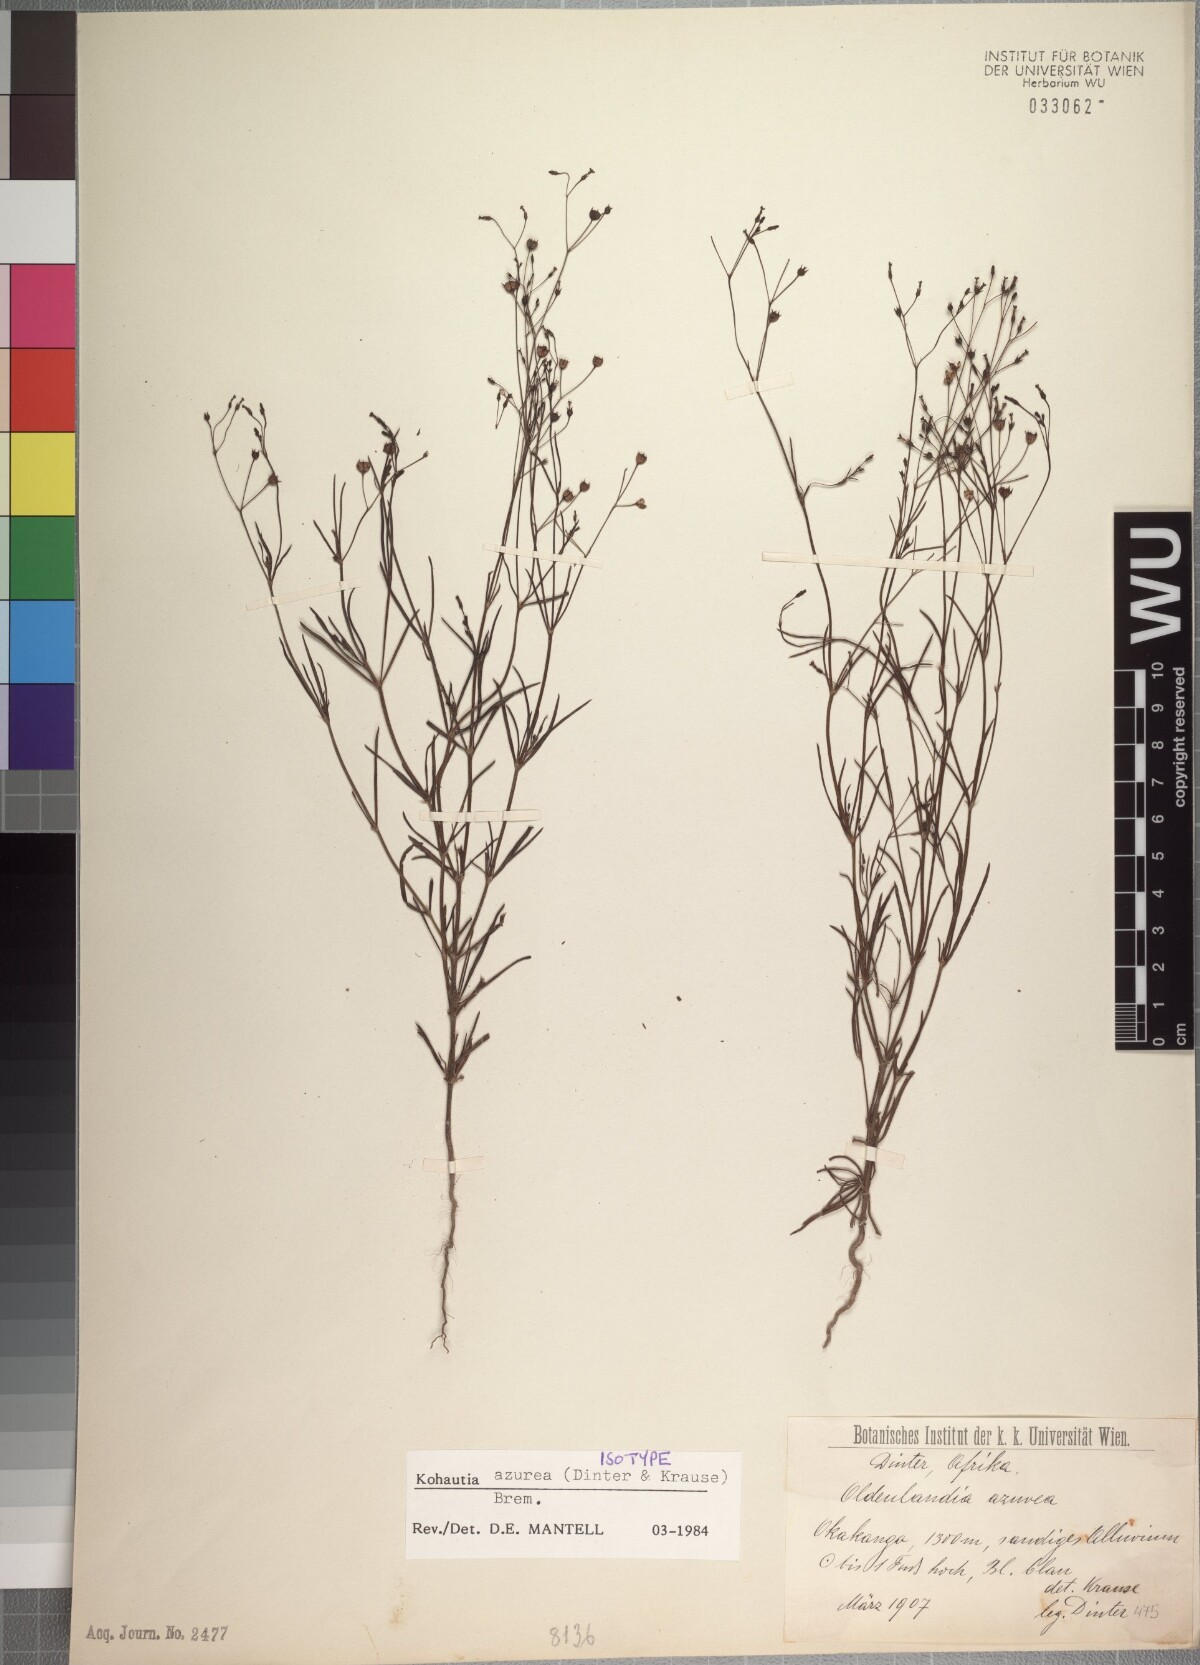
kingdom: Plantae
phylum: Tracheophyta
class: Magnoliopsida
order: Gentianales
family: Rubiaceae
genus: Kohautia
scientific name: Kohautia azurea
